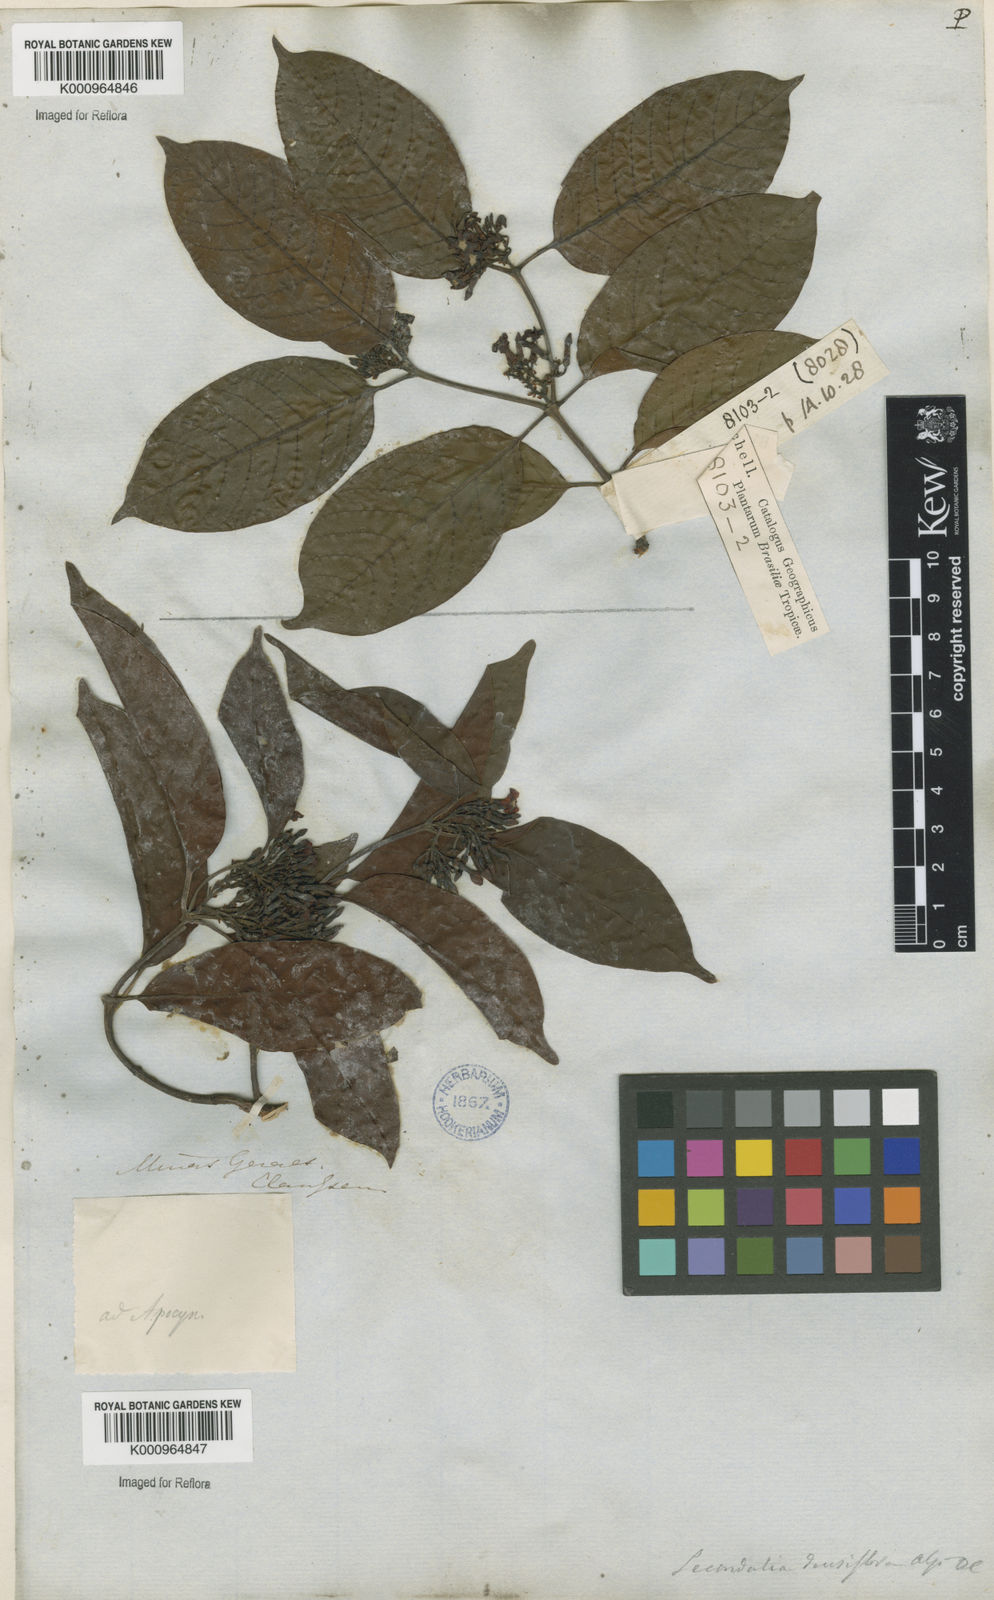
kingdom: Plantae
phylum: Tracheophyta
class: Magnoliopsida
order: Gentianales
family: Apocynaceae
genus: Secondatia
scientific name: Secondatia densiflora
